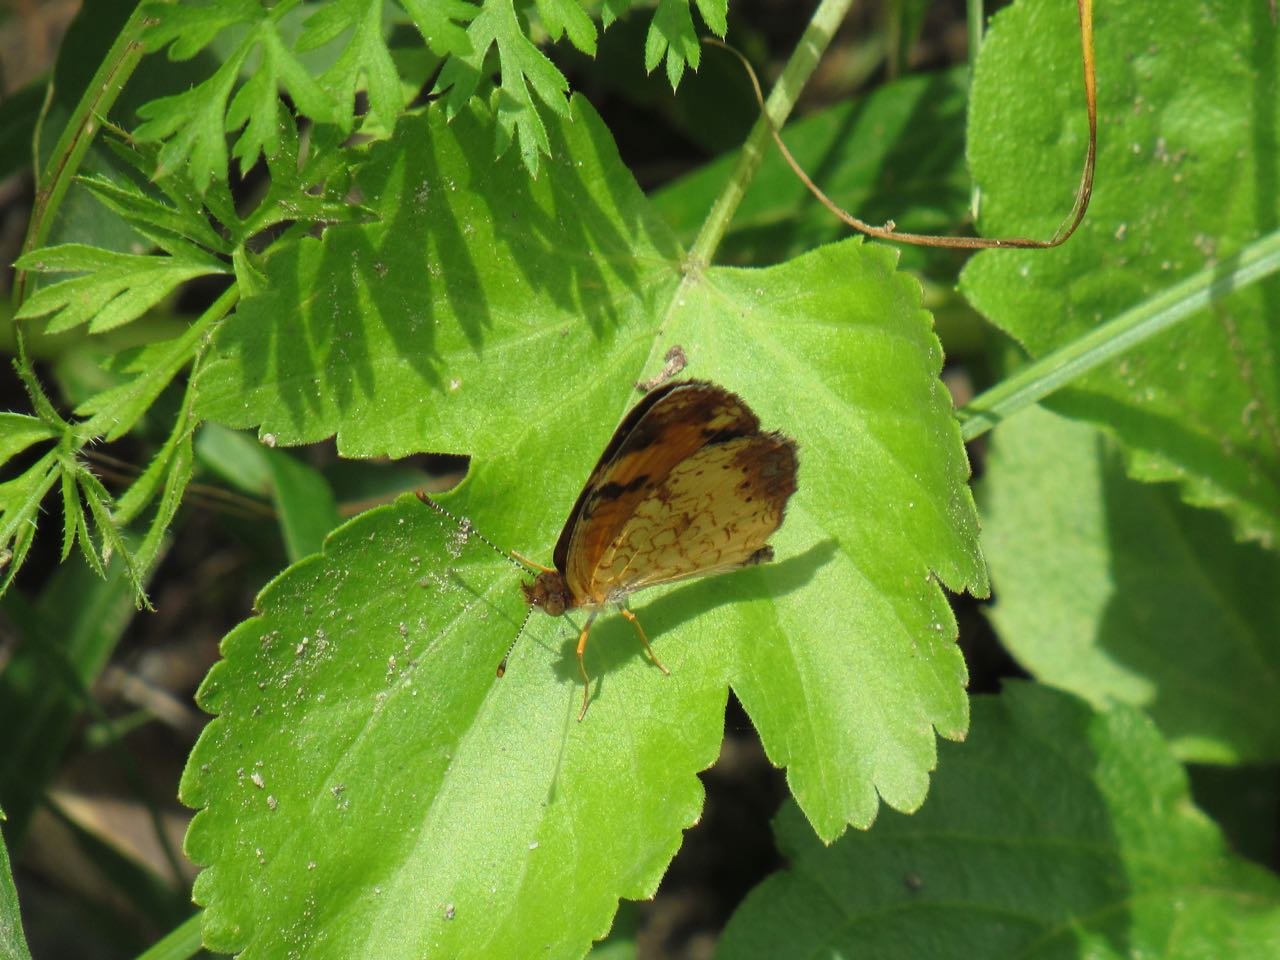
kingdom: Animalia
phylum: Arthropoda
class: Insecta
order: Lepidoptera
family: Nymphalidae
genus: Phyciodes
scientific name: Phyciodes tharos
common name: Pearl Crescent
